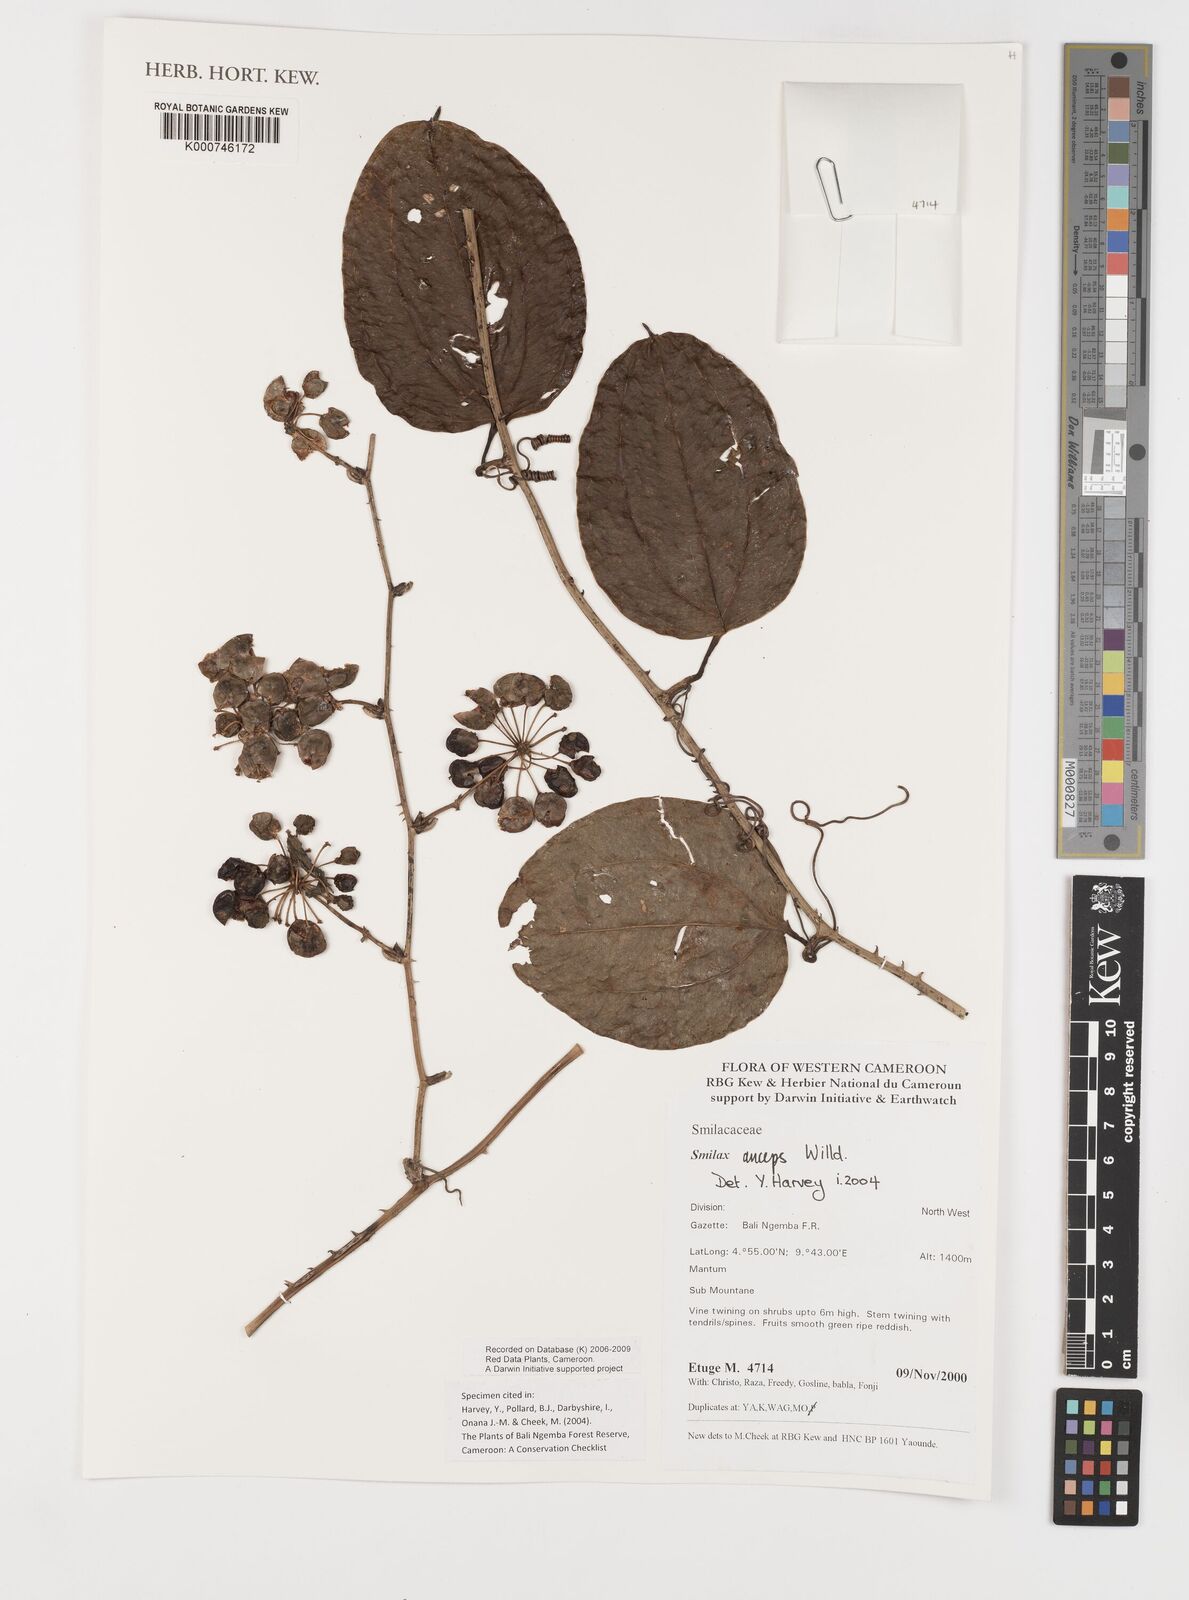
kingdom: Plantae
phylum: Tracheophyta
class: Liliopsida
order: Liliales
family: Smilacaceae
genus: Smilax
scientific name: Smilax anceps
